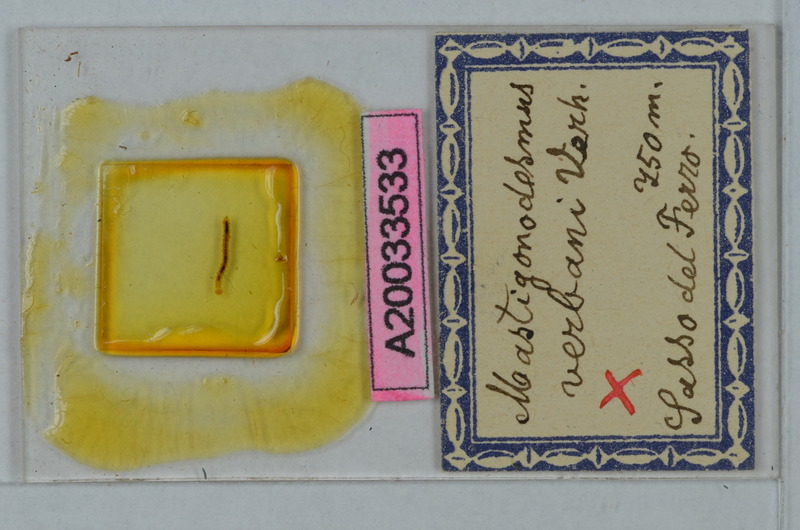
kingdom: Animalia
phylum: Arthropoda
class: Diplopoda
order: Polydesmida
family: Polydesmidae
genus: Mastigonodesmus
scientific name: Mastigonodesmus verbani
